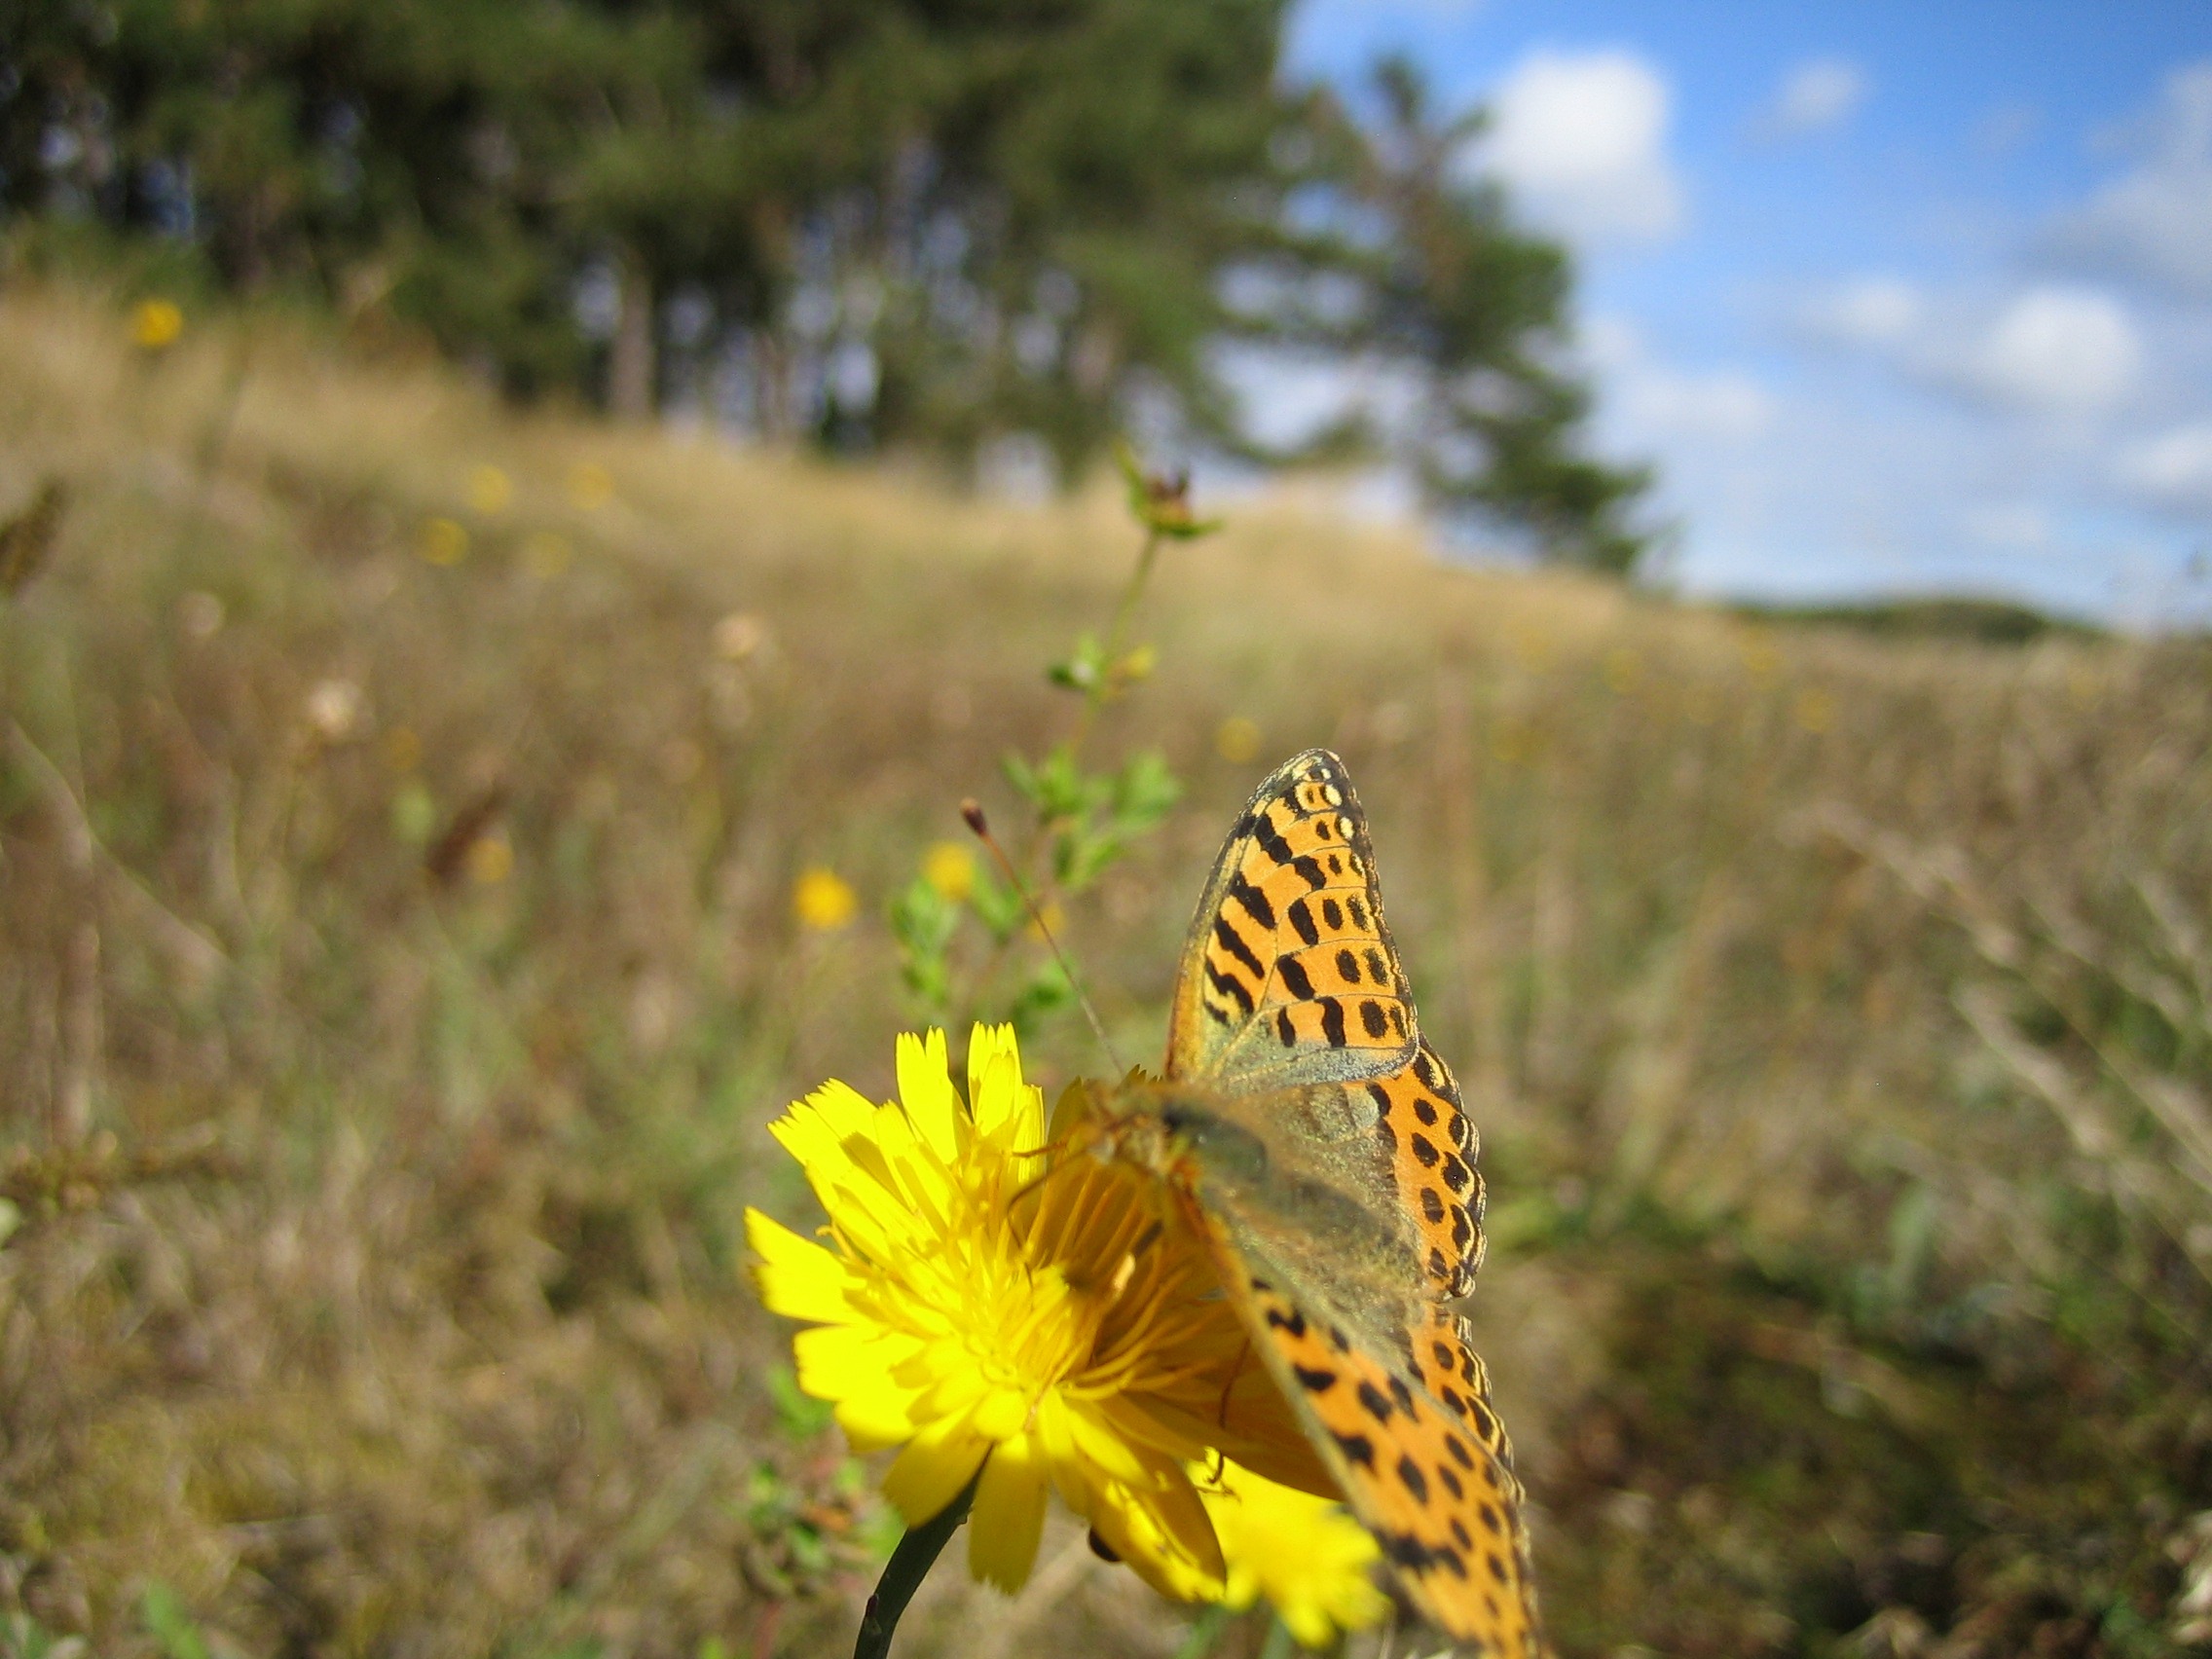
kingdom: Animalia
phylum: Arthropoda
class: Insecta
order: Lepidoptera
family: Nymphalidae
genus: Issoria
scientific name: Issoria lathonia
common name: Storplettet perlemorsommerfugl
